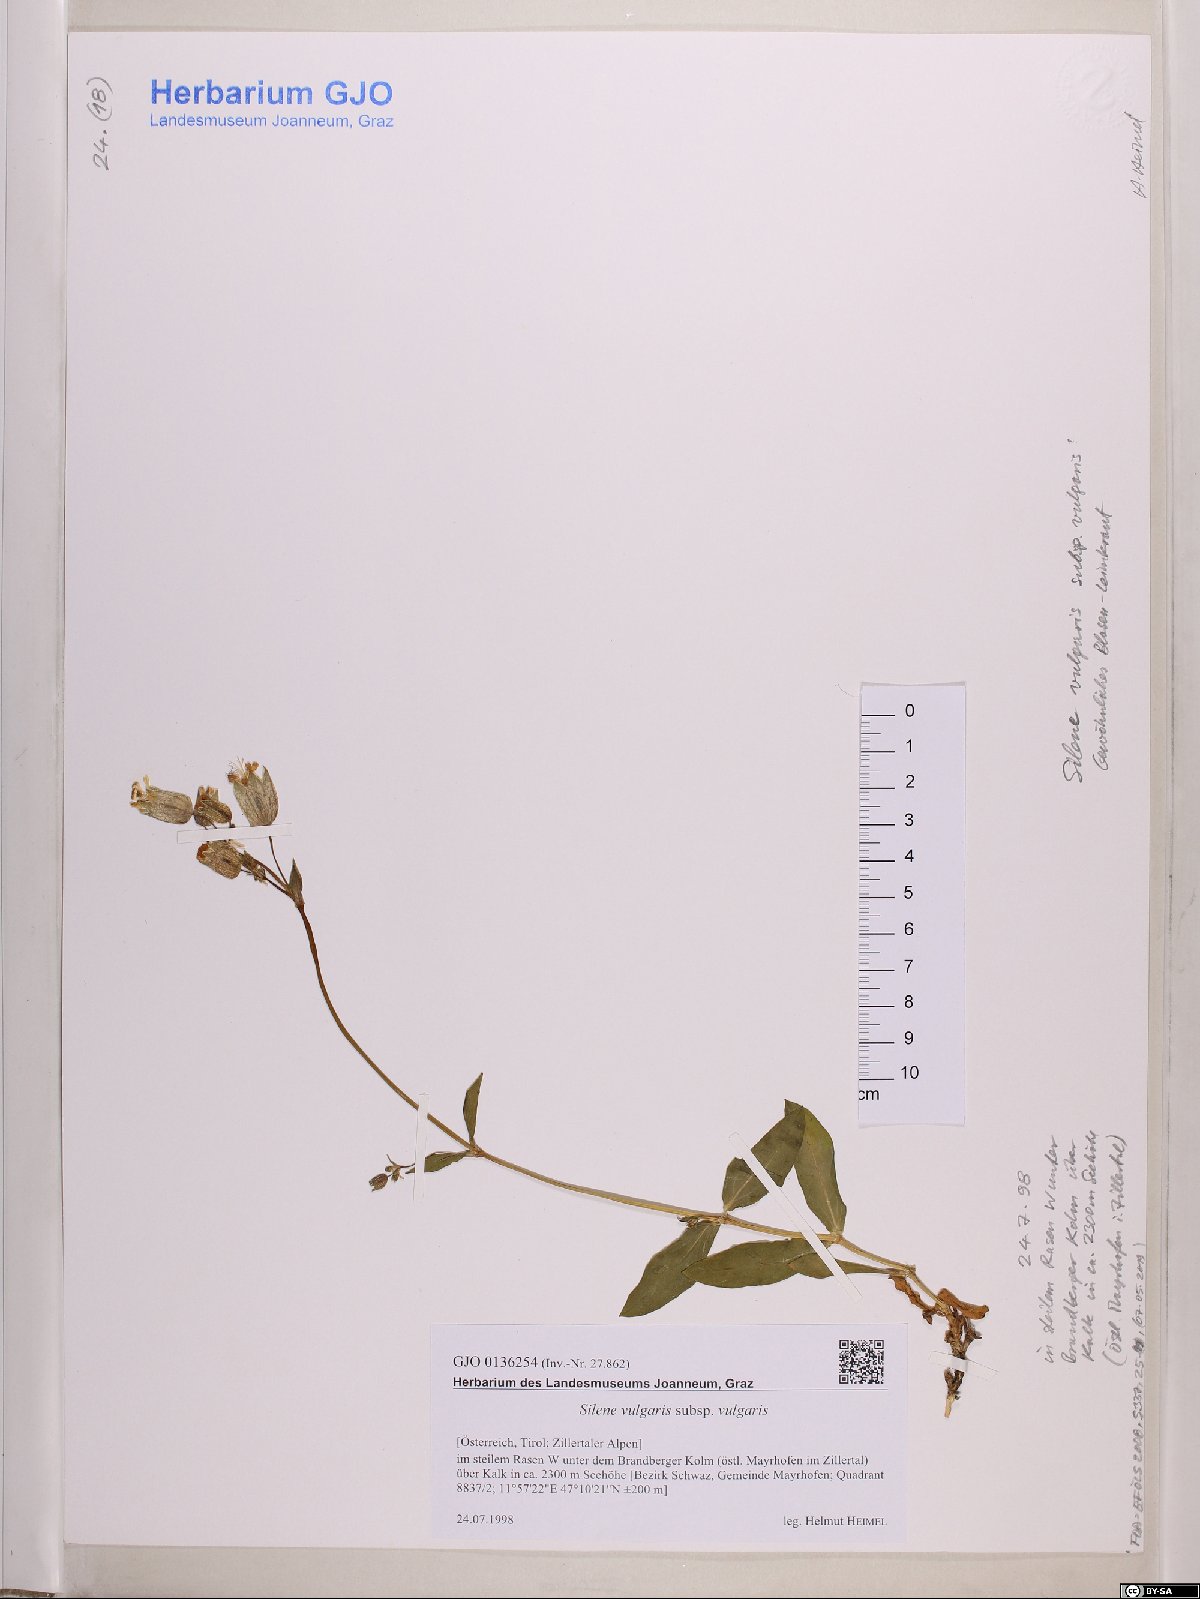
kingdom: Plantae
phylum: Tracheophyta
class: Magnoliopsida
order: Caryophyllales
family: Caryophyllaceae
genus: Silene
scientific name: Silene vulgaris
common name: Bladder campion
